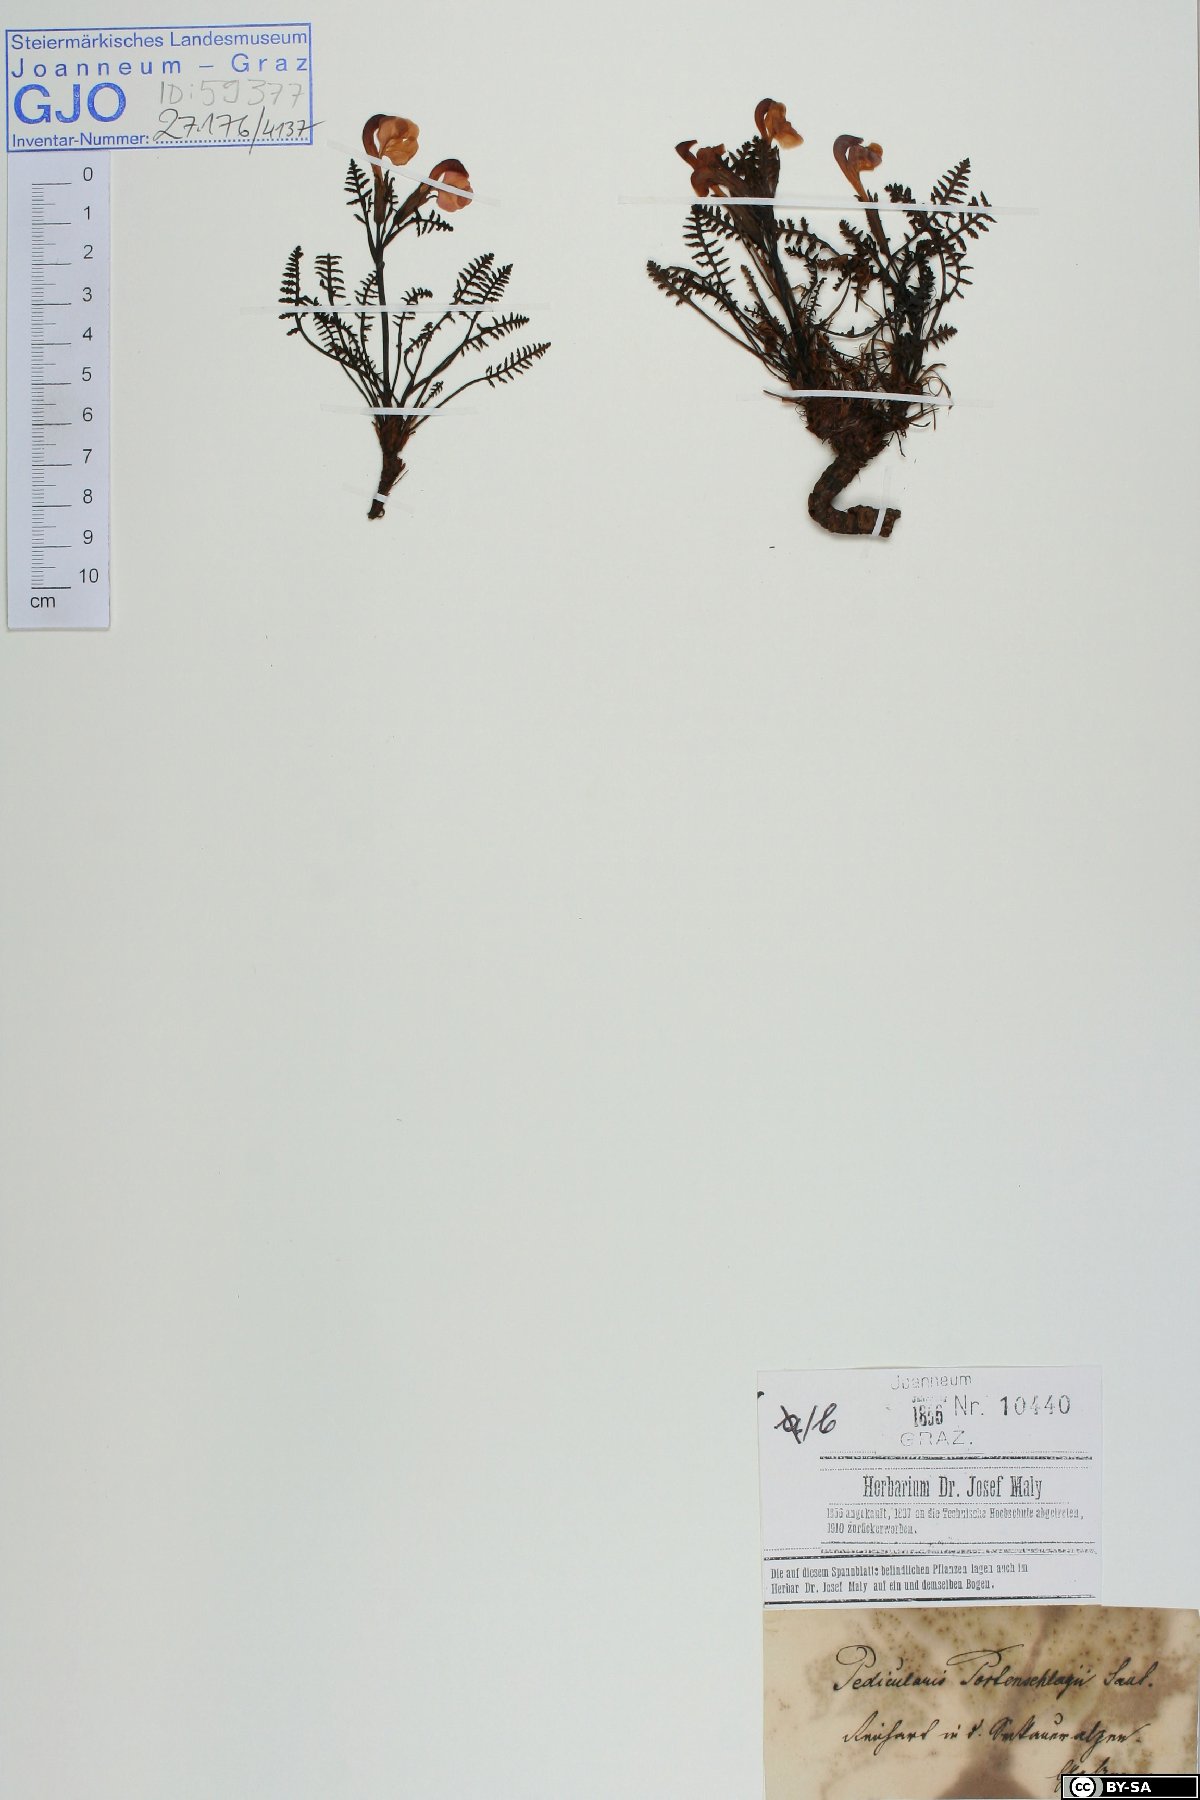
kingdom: Plantae
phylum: Tracheophyta
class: Magnoliopsida
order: Lamiales
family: Orobanchaceae
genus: Pedicularis
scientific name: Pedicularis portenschlagii
